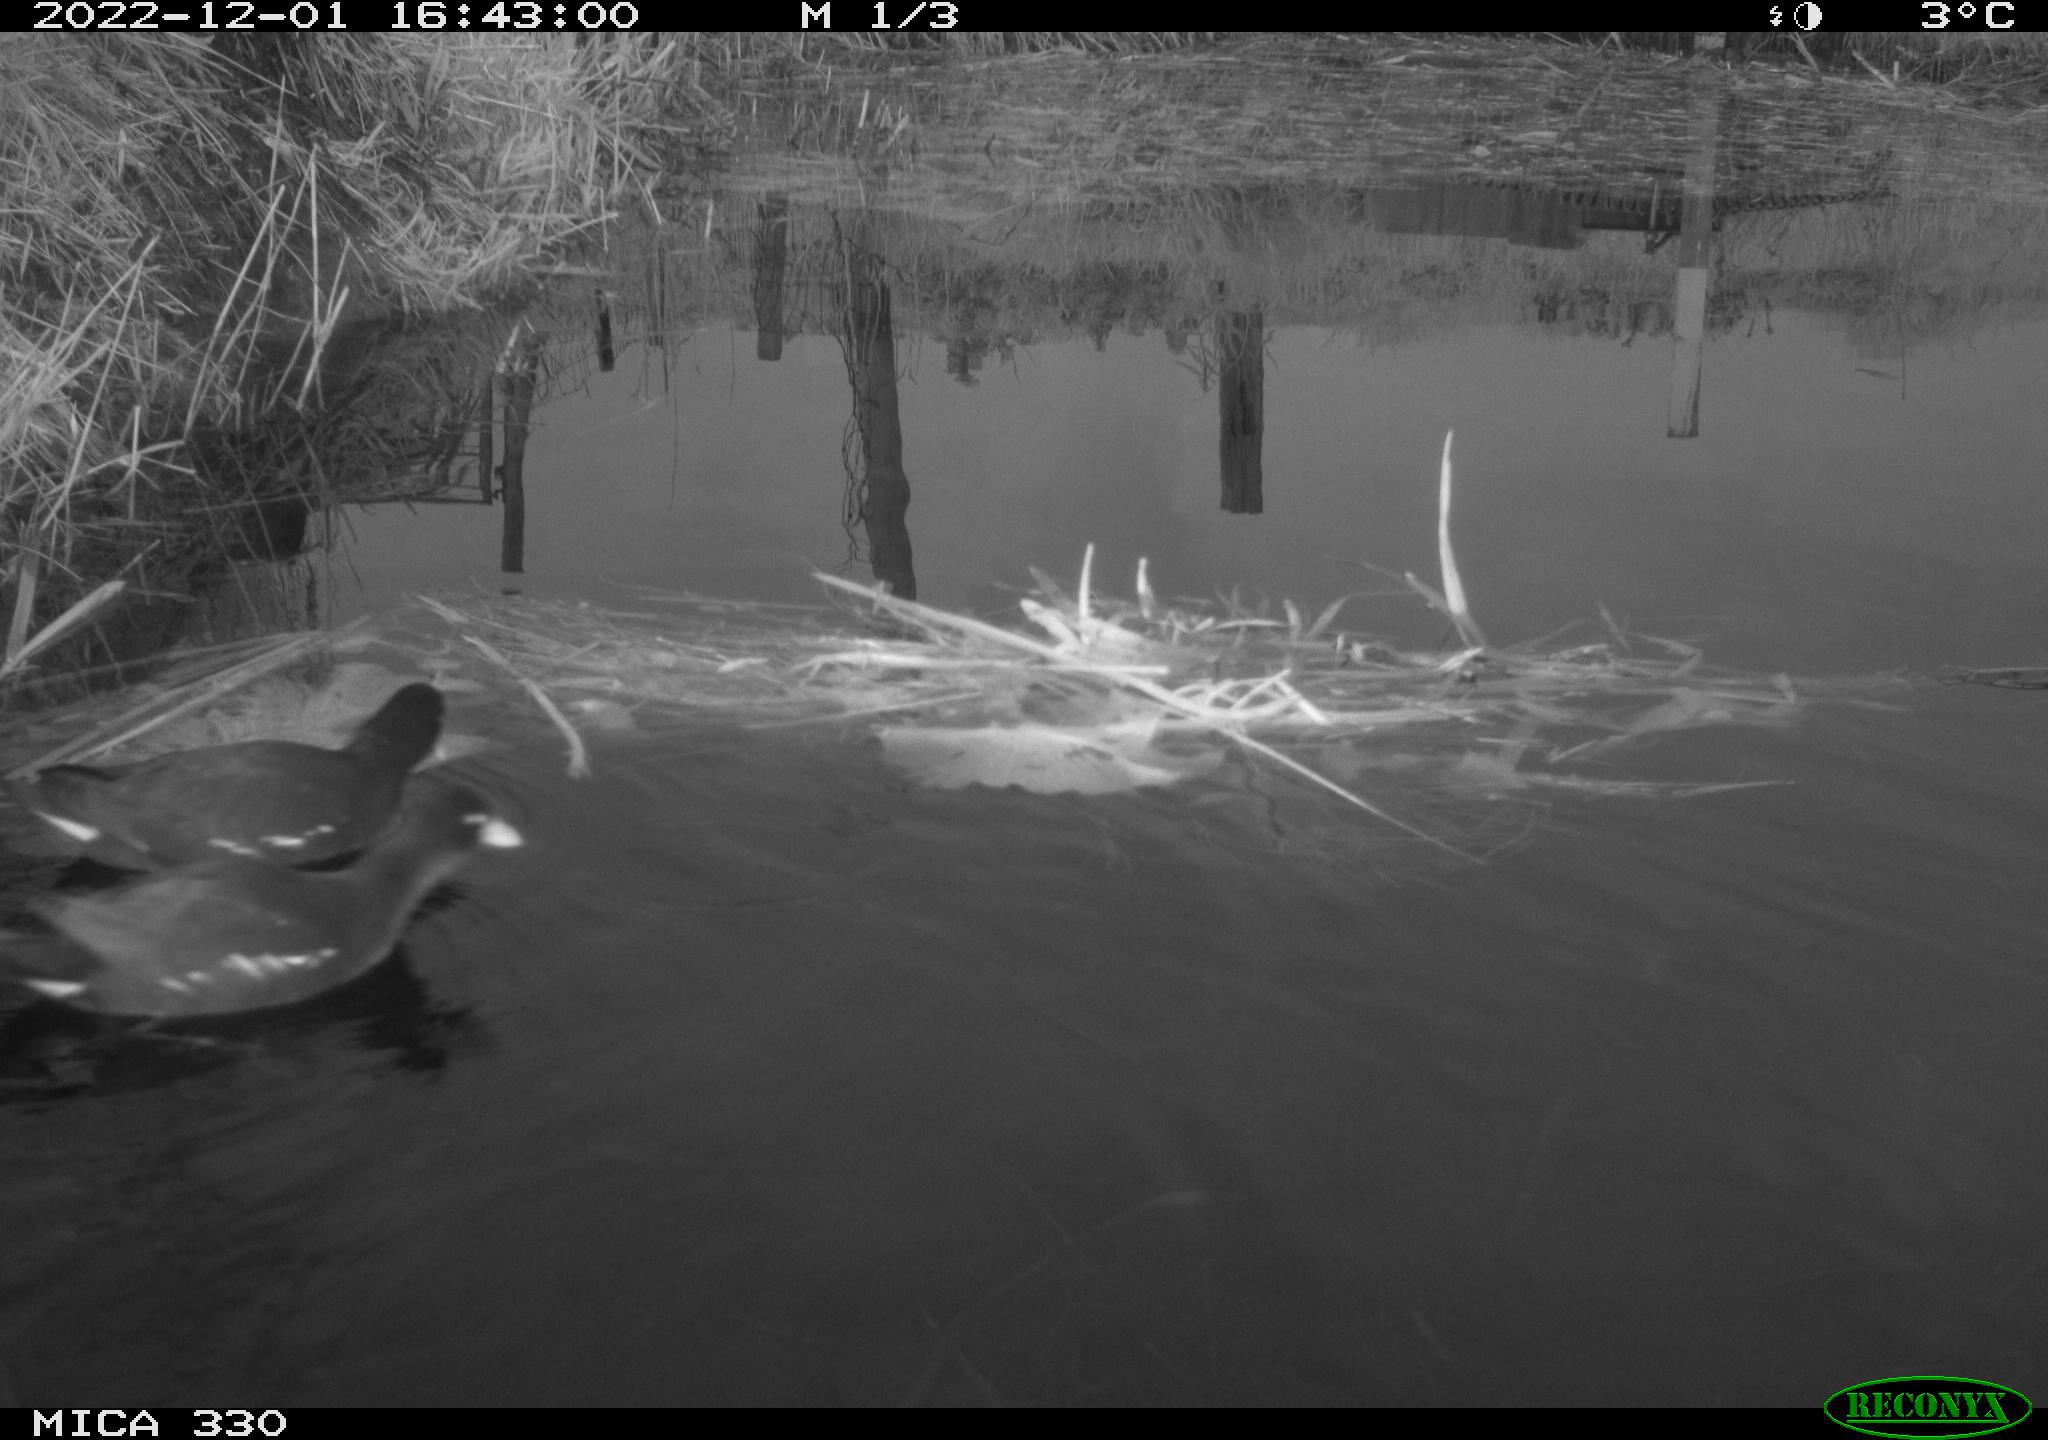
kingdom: Animalia
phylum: Chordata
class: Aves
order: Gruiformes
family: Rallidae
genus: Gallinula
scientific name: Gallinula chloropus
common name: Common moorhen
